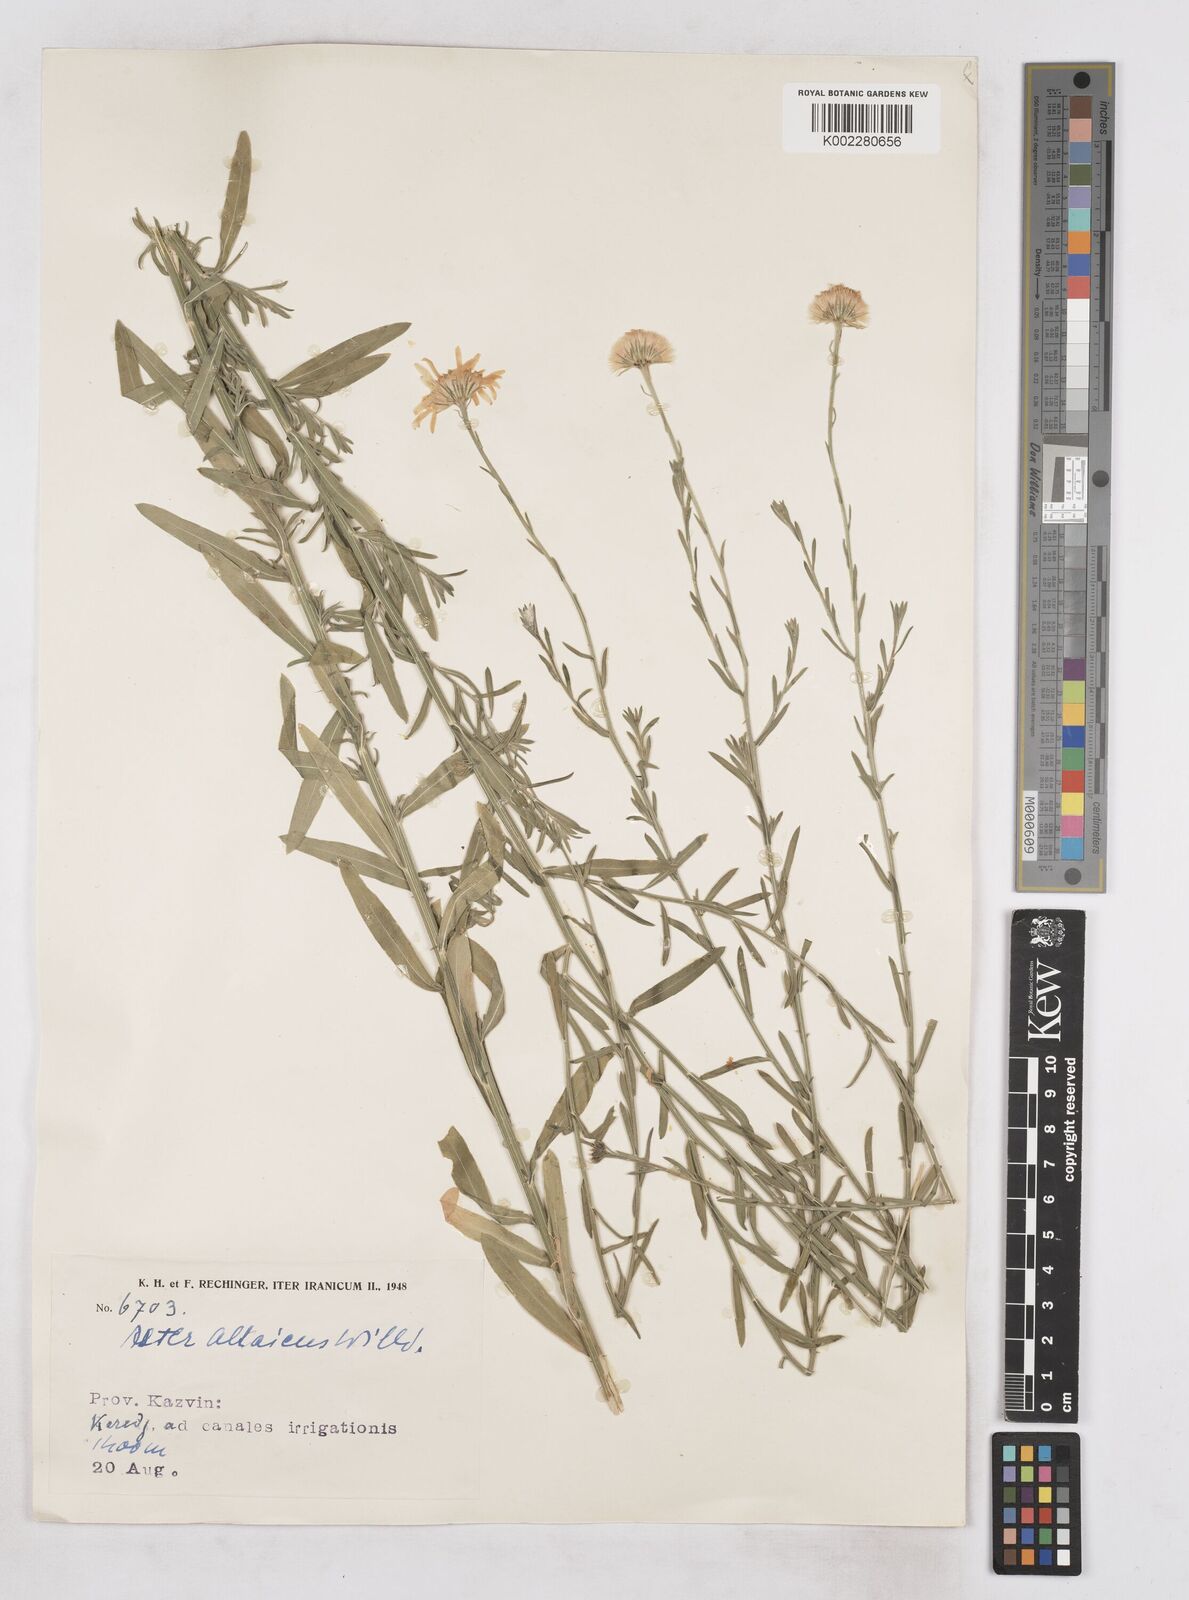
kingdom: Plantae
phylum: Tracheophyta
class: Magnoliopsida
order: Asterales
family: Asteraceae
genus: Heteropappus
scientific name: Heteropappus altaicus
